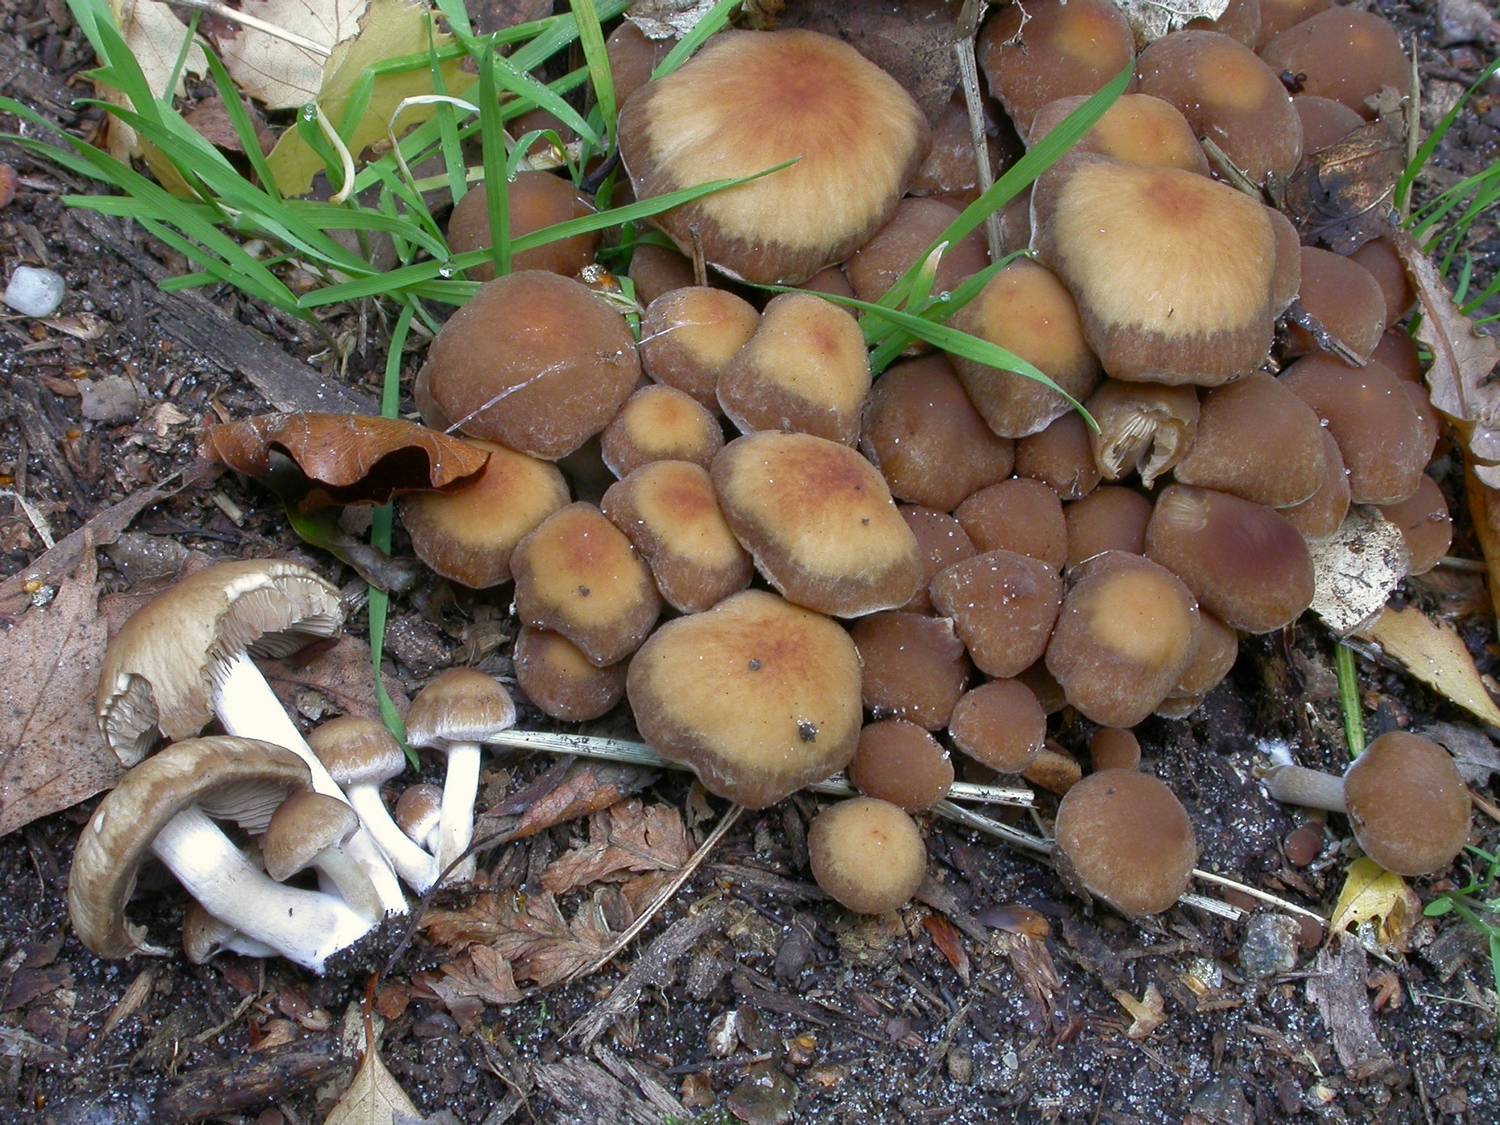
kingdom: Fungi
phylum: Basidiomycota
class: Agaricomycetes
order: Agaricales
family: Psathyrellaceae
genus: Psathyrella
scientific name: Psathyrella piluliformis
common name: lysstokket mørkhat
